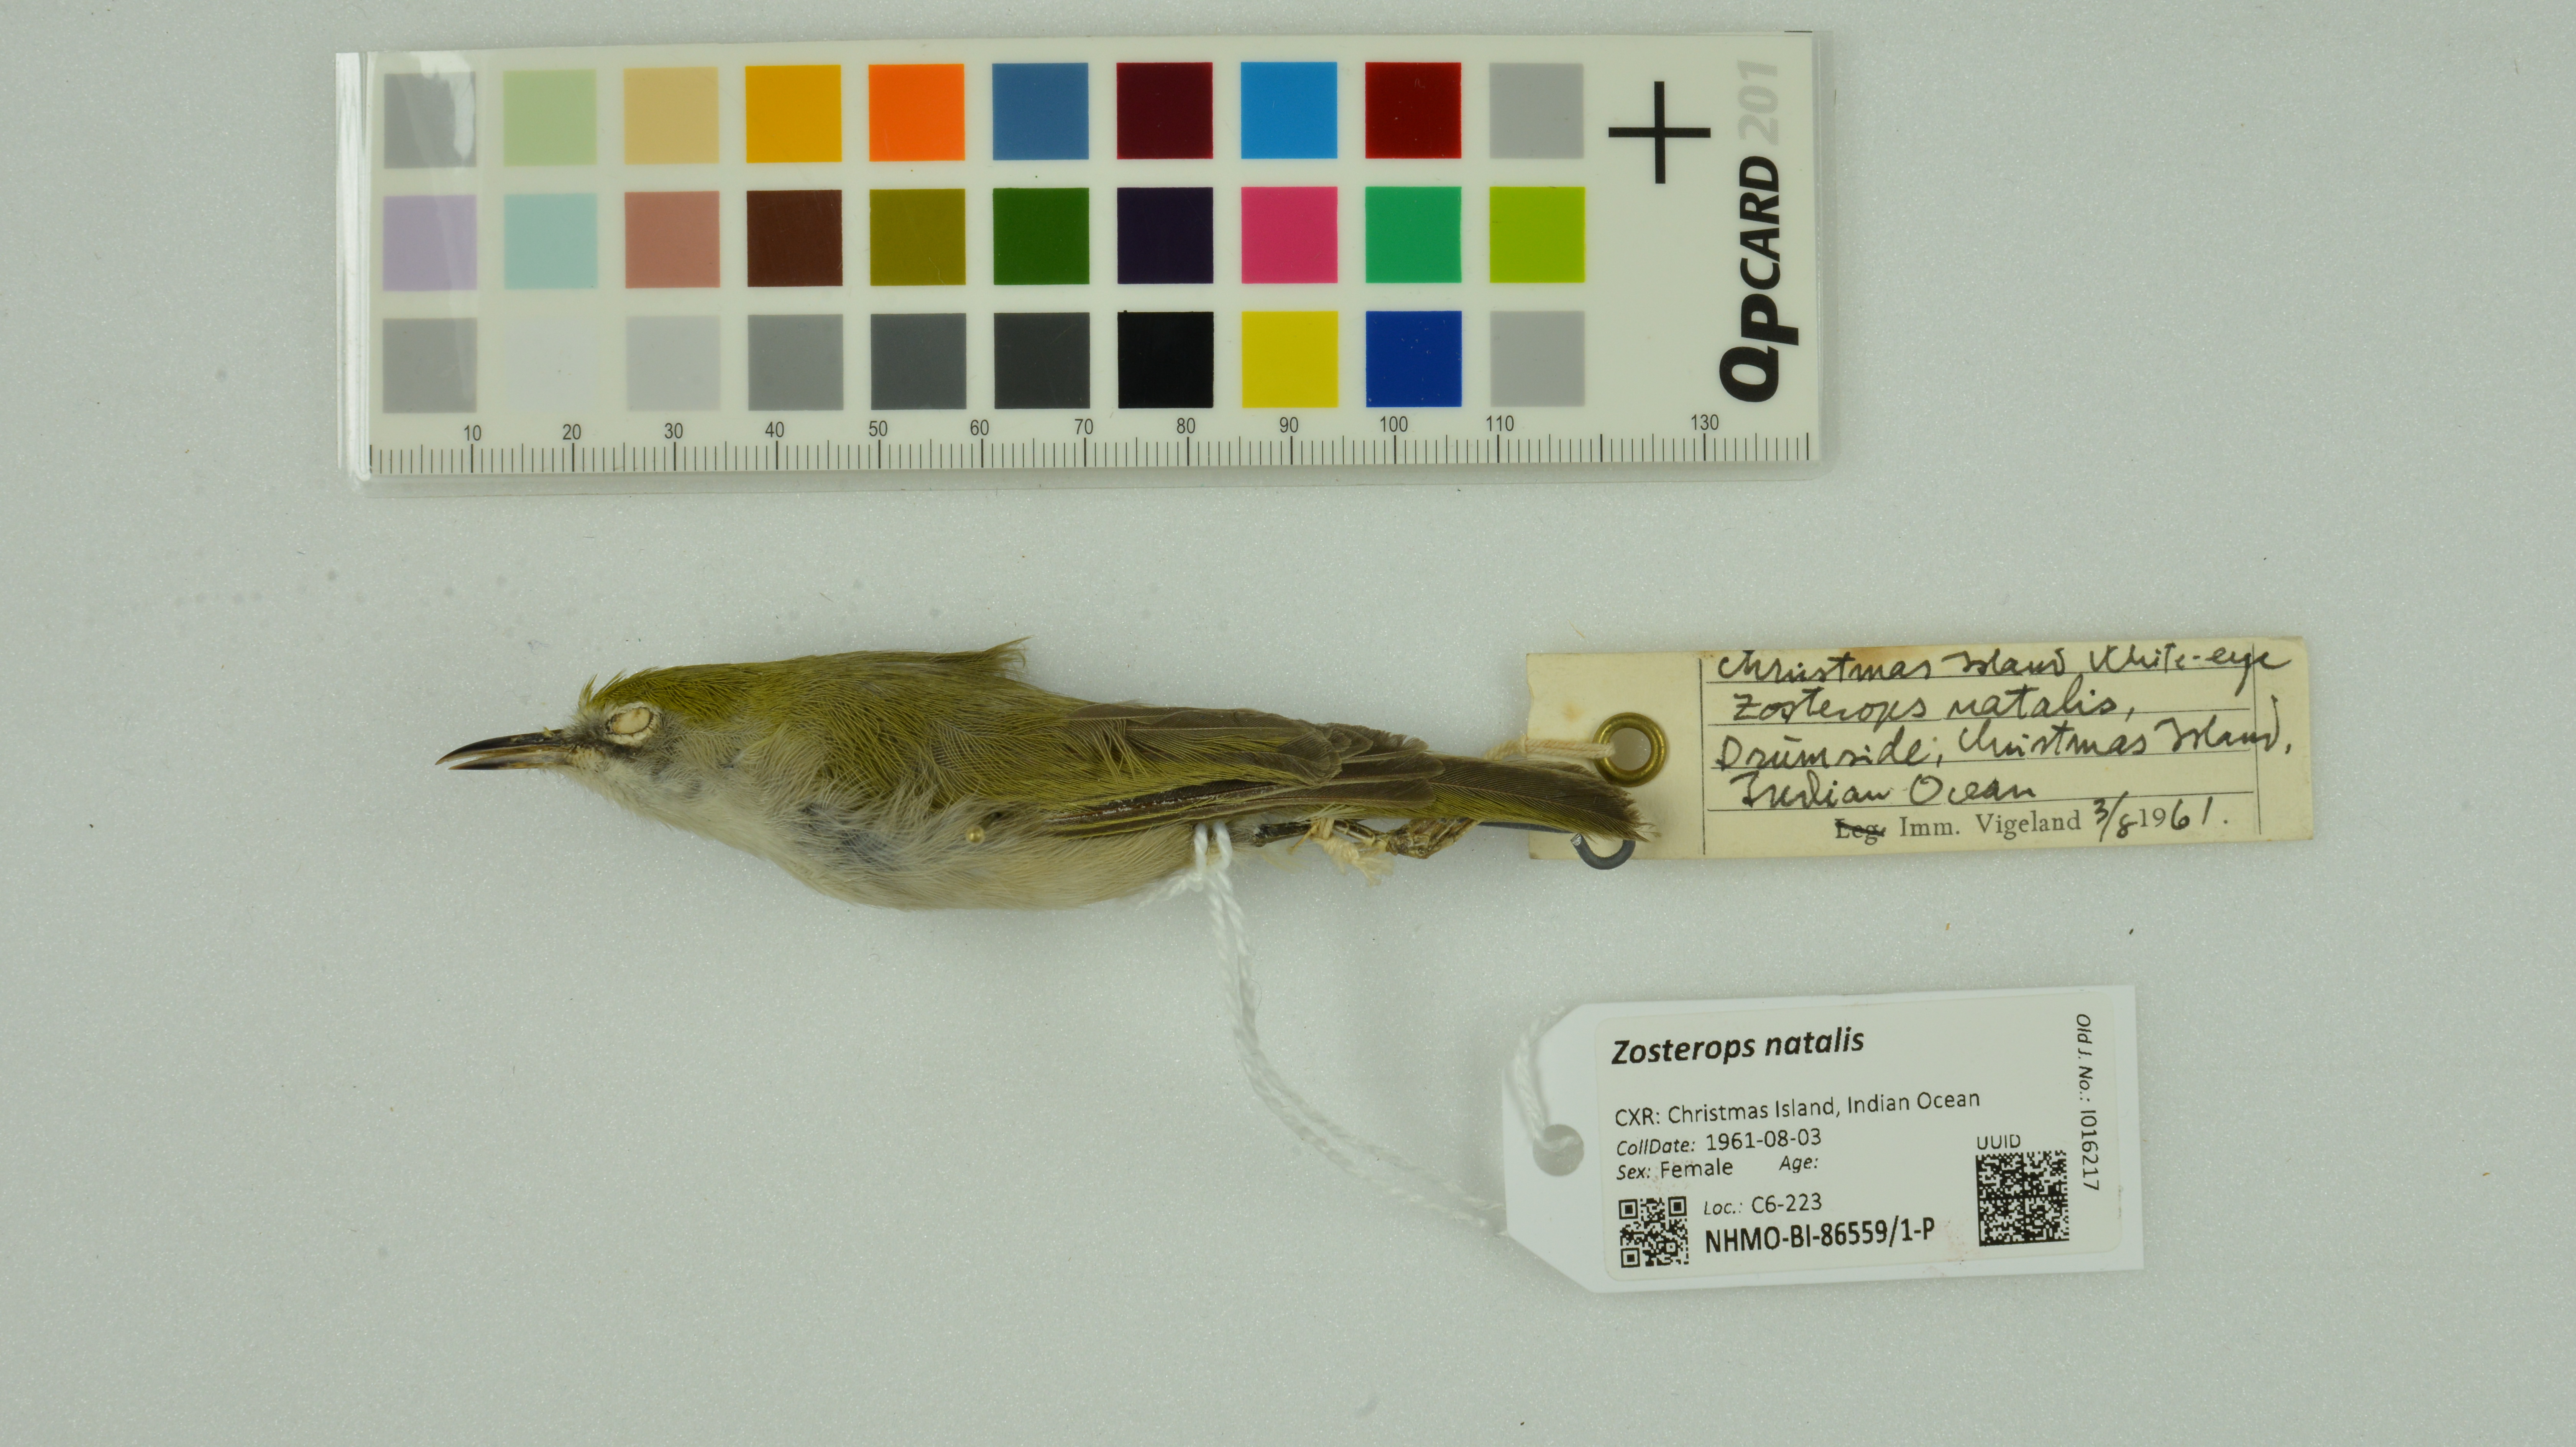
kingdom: Animalia
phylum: Chordata
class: Aves
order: Passeriformes
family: Zosteropidae
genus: Zosterops
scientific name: Zosterops natalis
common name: Christmas white-eye
